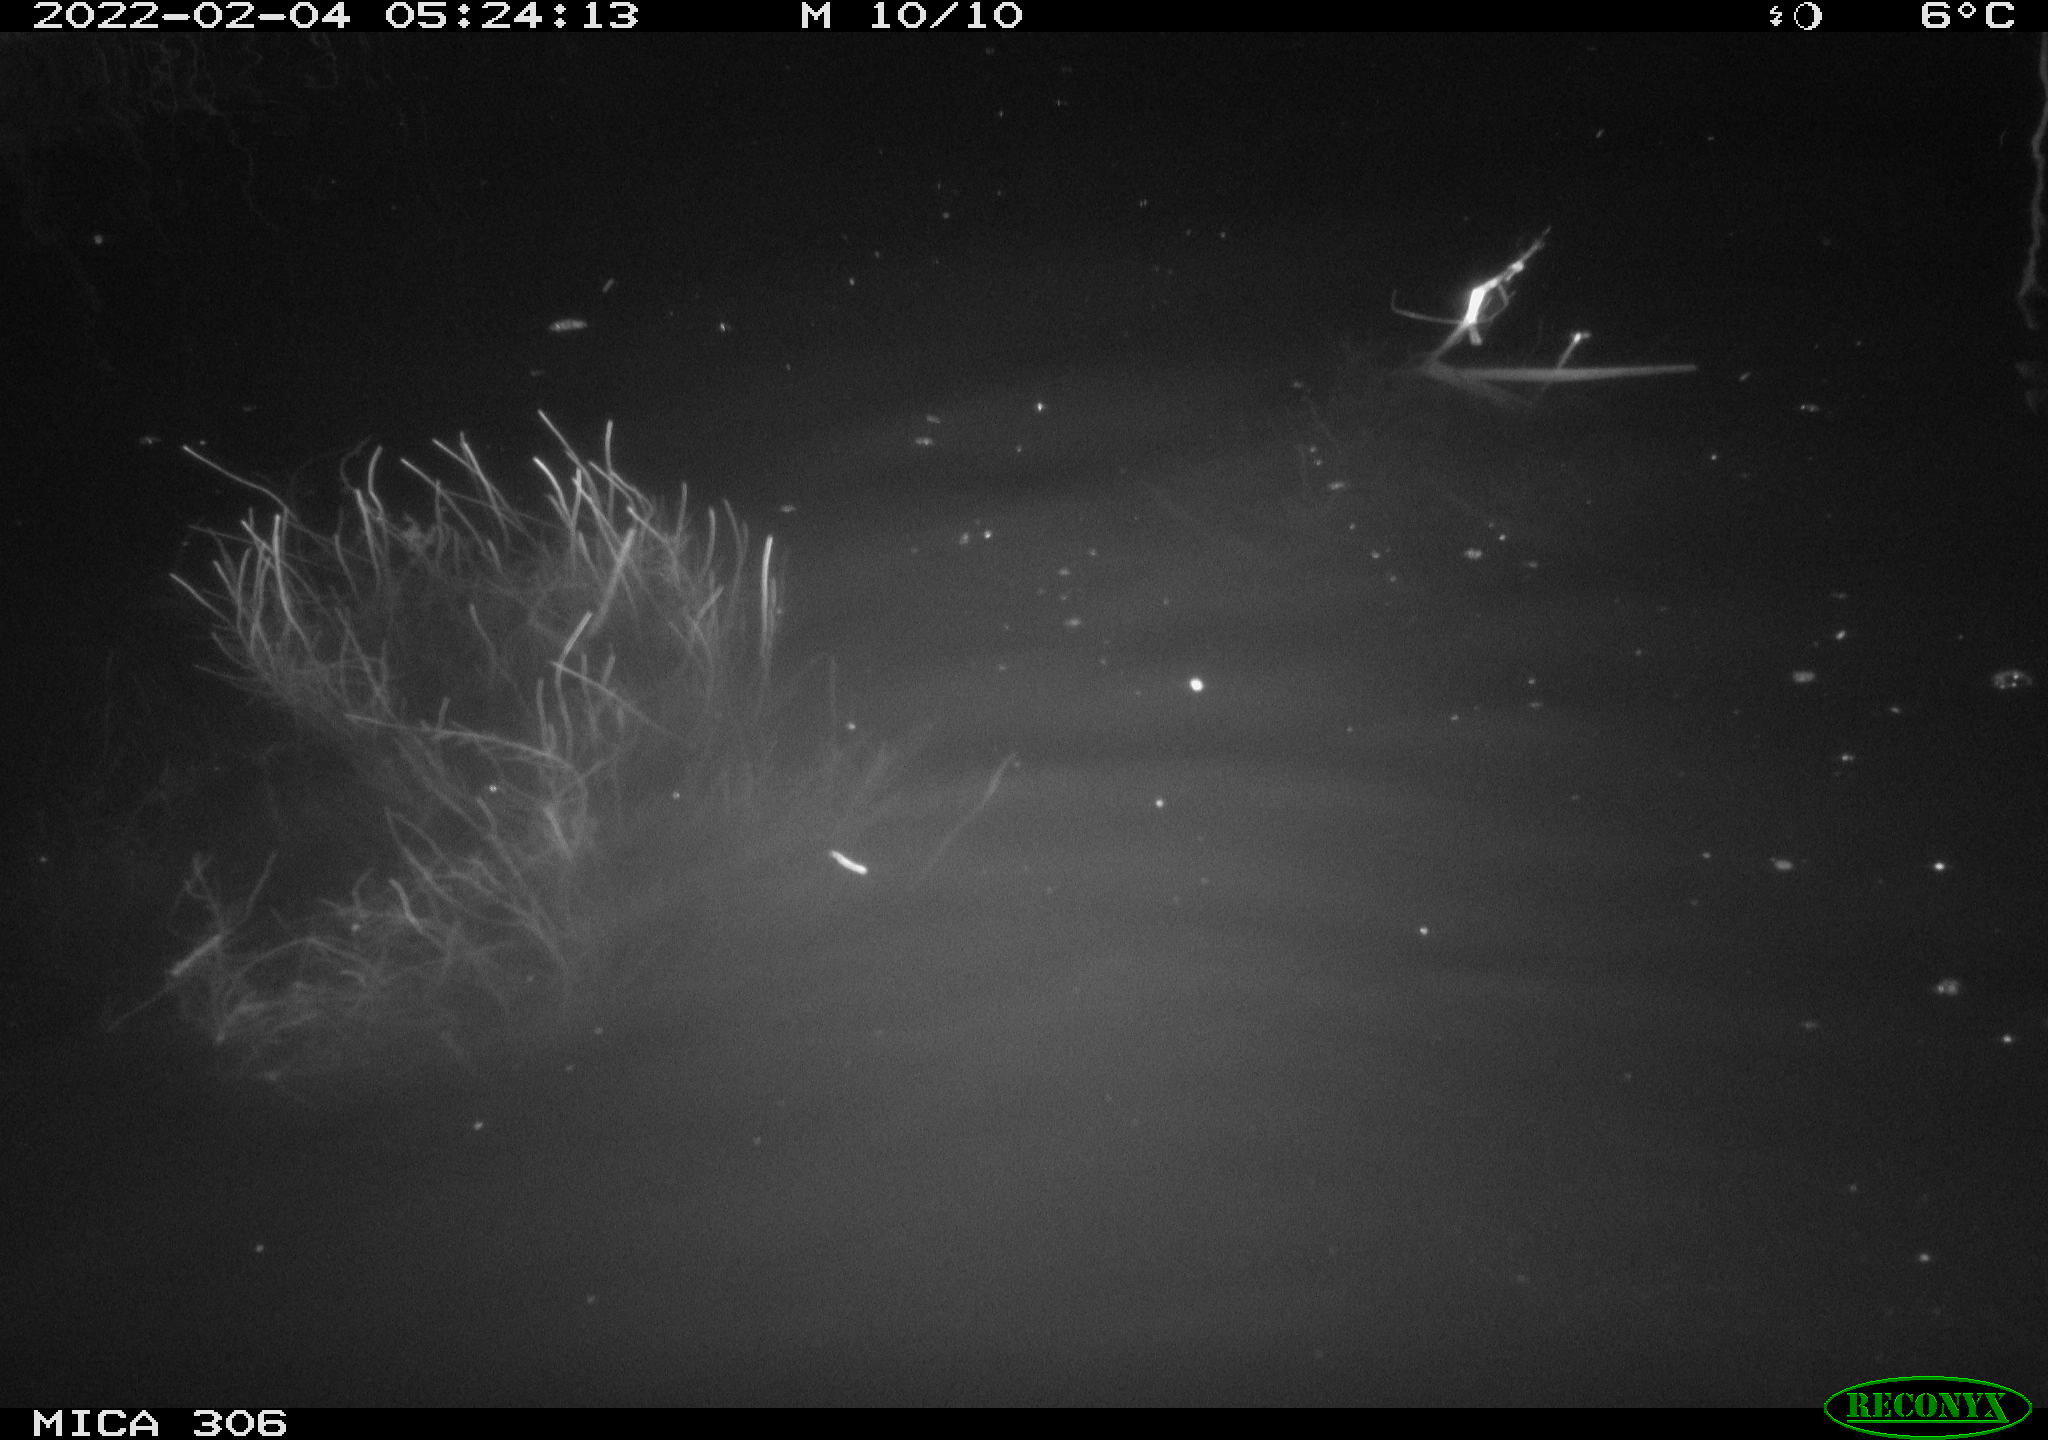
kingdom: Animalia
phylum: Chordata
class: Mammalia
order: Rodentia
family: Cricetidae
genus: Ondatra
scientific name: Ondatra zibethicus
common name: Muskrat
